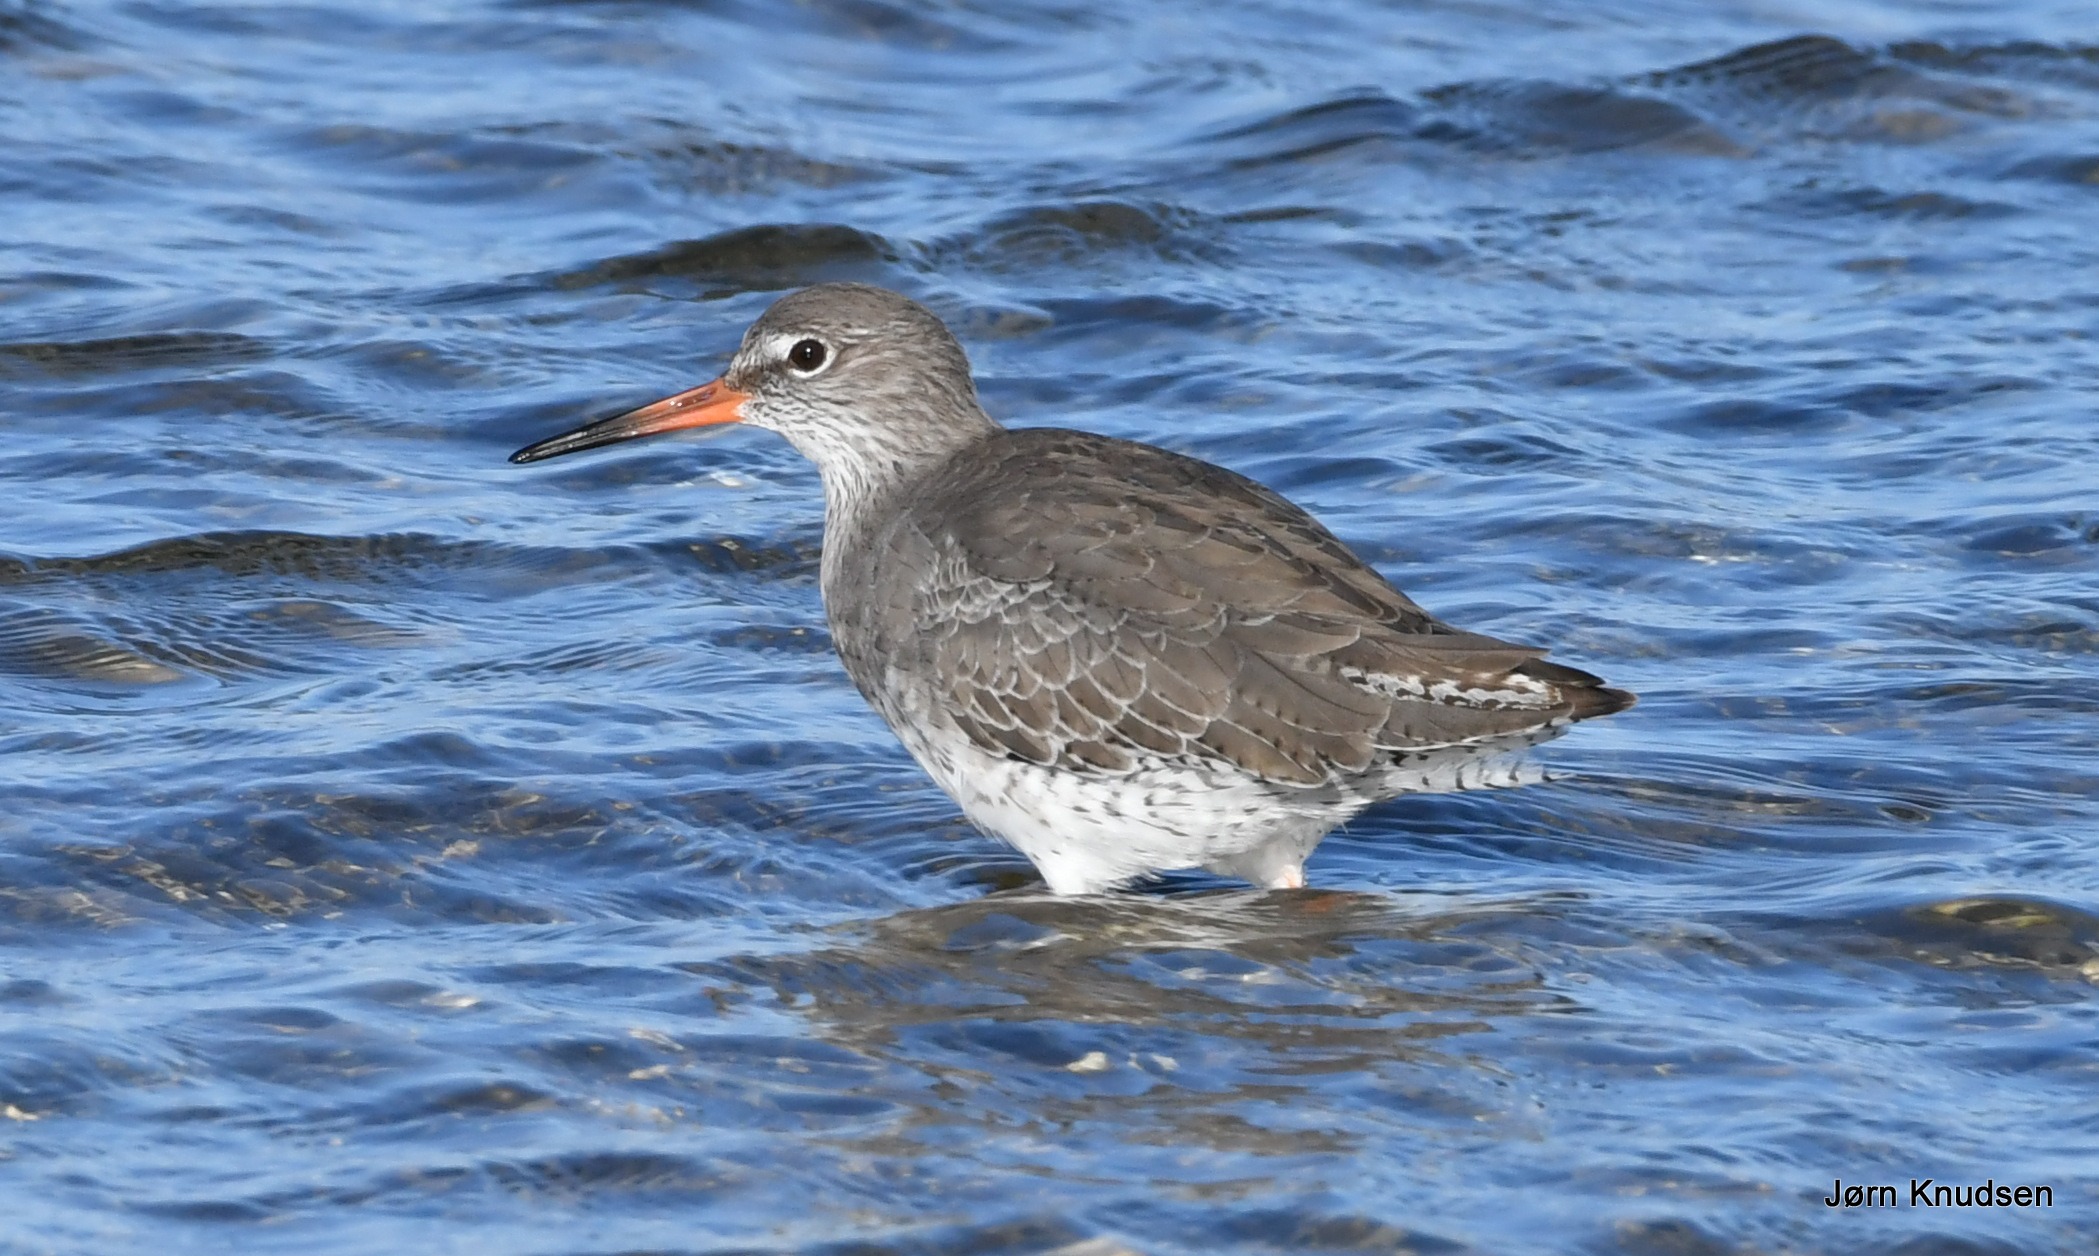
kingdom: Animalia
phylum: Chordata
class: Aves
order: Charadriiformes
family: Scolopacidae
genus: Tringa
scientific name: Tringa totanus
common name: Rødben
